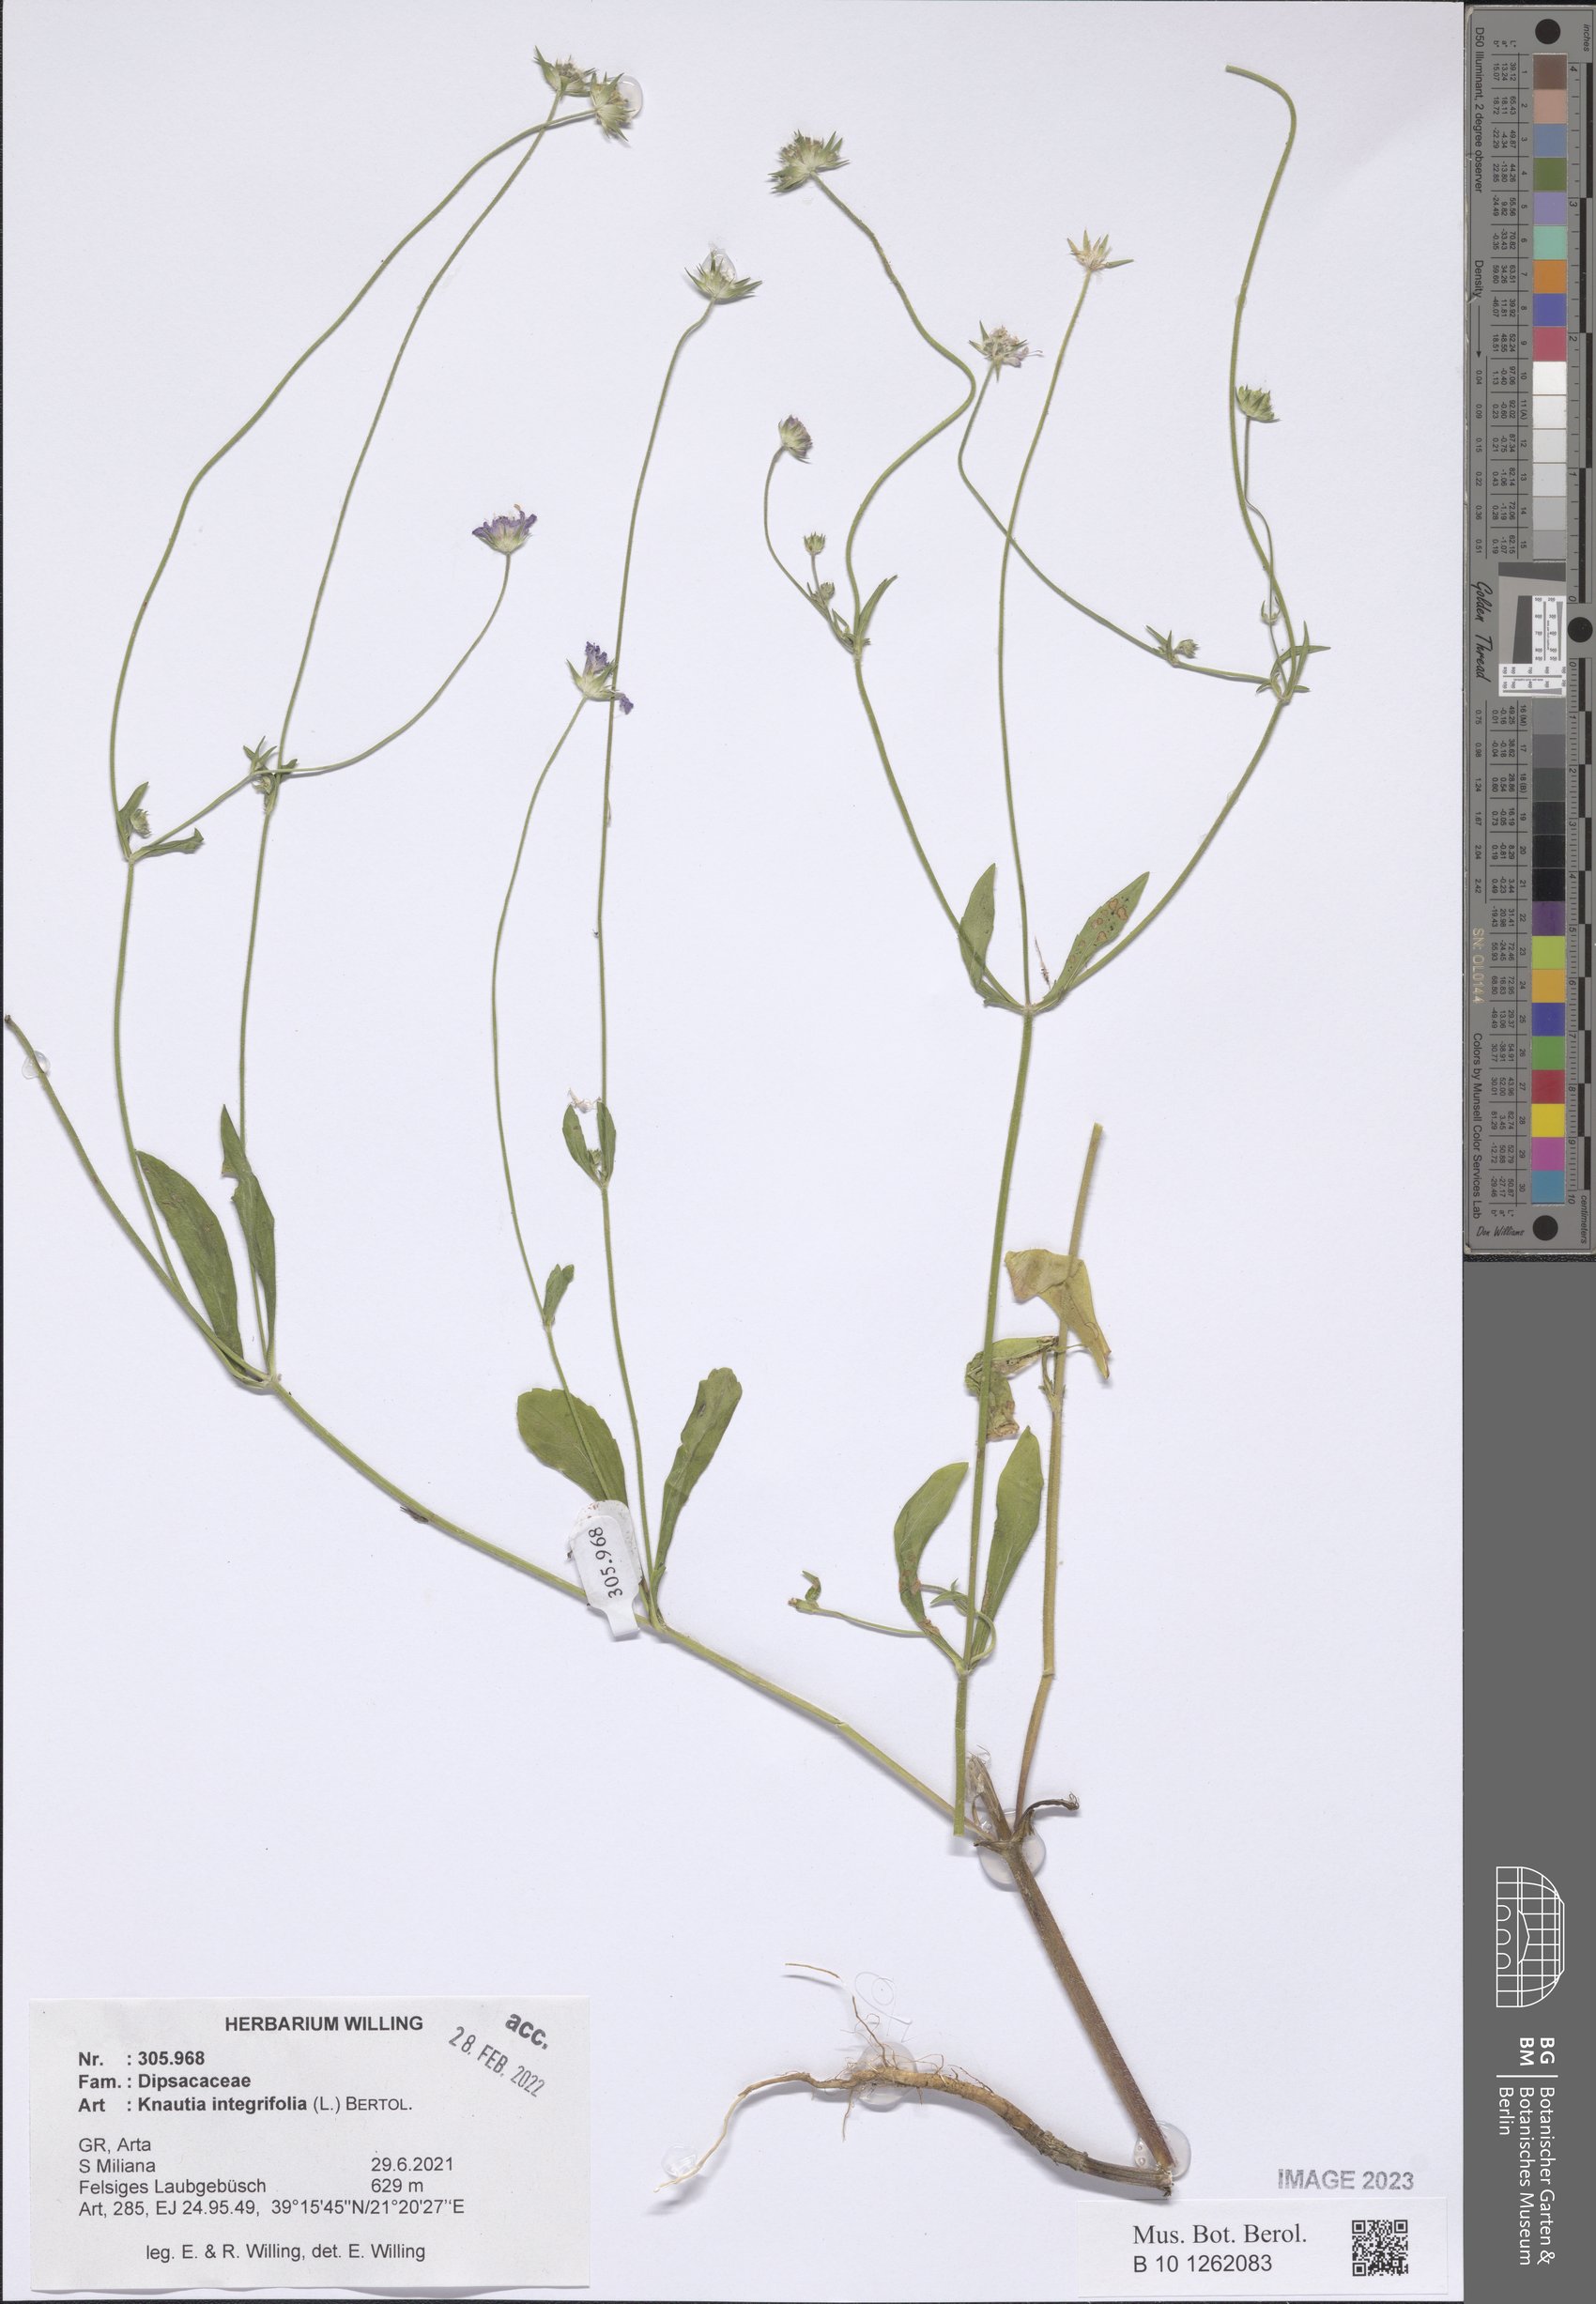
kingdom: Plantae
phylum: Tracheophyta
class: Magnoliopsida
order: Dipsacales
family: Caprifoliaceae
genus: Knautia
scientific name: Knautia integrifolia
